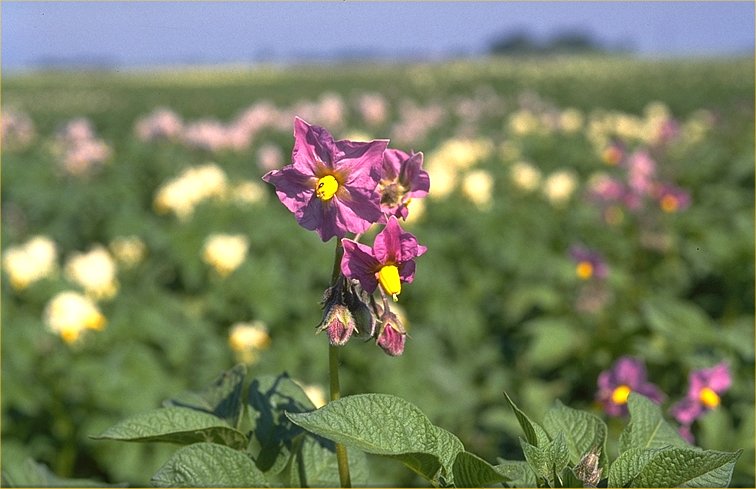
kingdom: Plantae
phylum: Tracheophyta
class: Magnoliopsida
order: Solanales
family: Solanaceae
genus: Solanum
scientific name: Solanum tuberosum
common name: Potato
